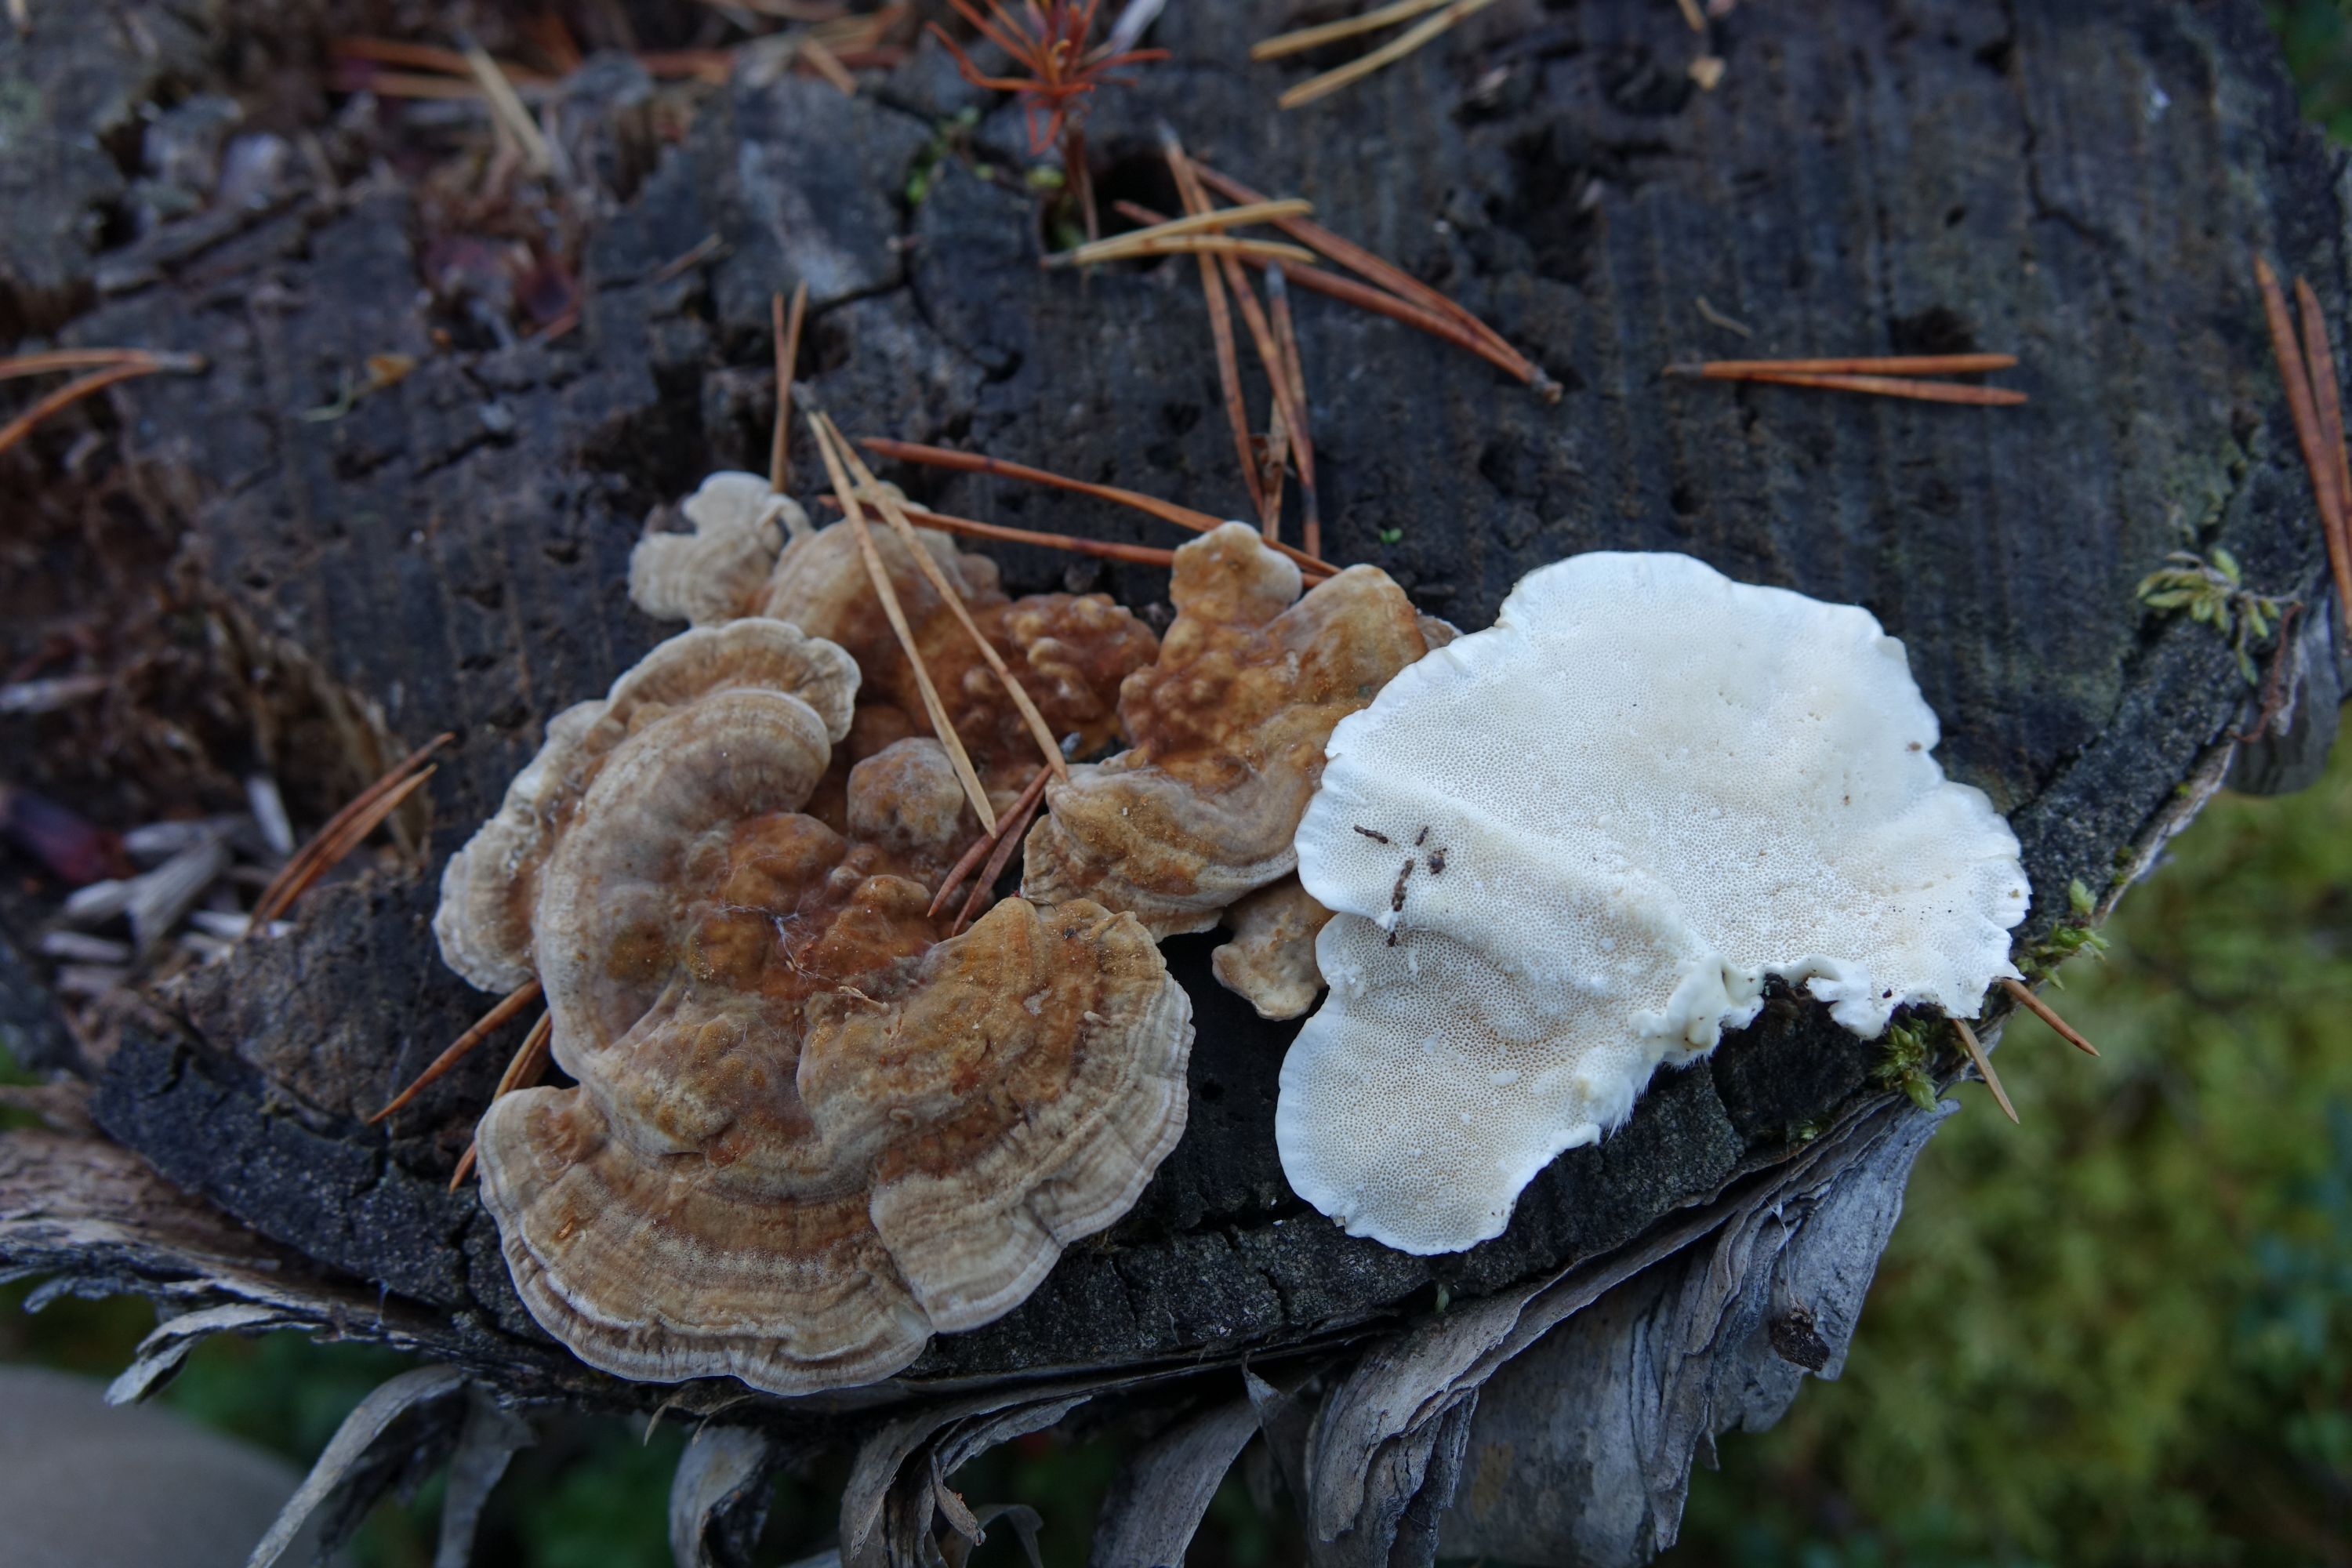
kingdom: Fungi
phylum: Basidiomycota
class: Agaricomycetes
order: Polyporales
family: Polyporaceae
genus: Trametes
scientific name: Trametes ochracea
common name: Ochre bracket
